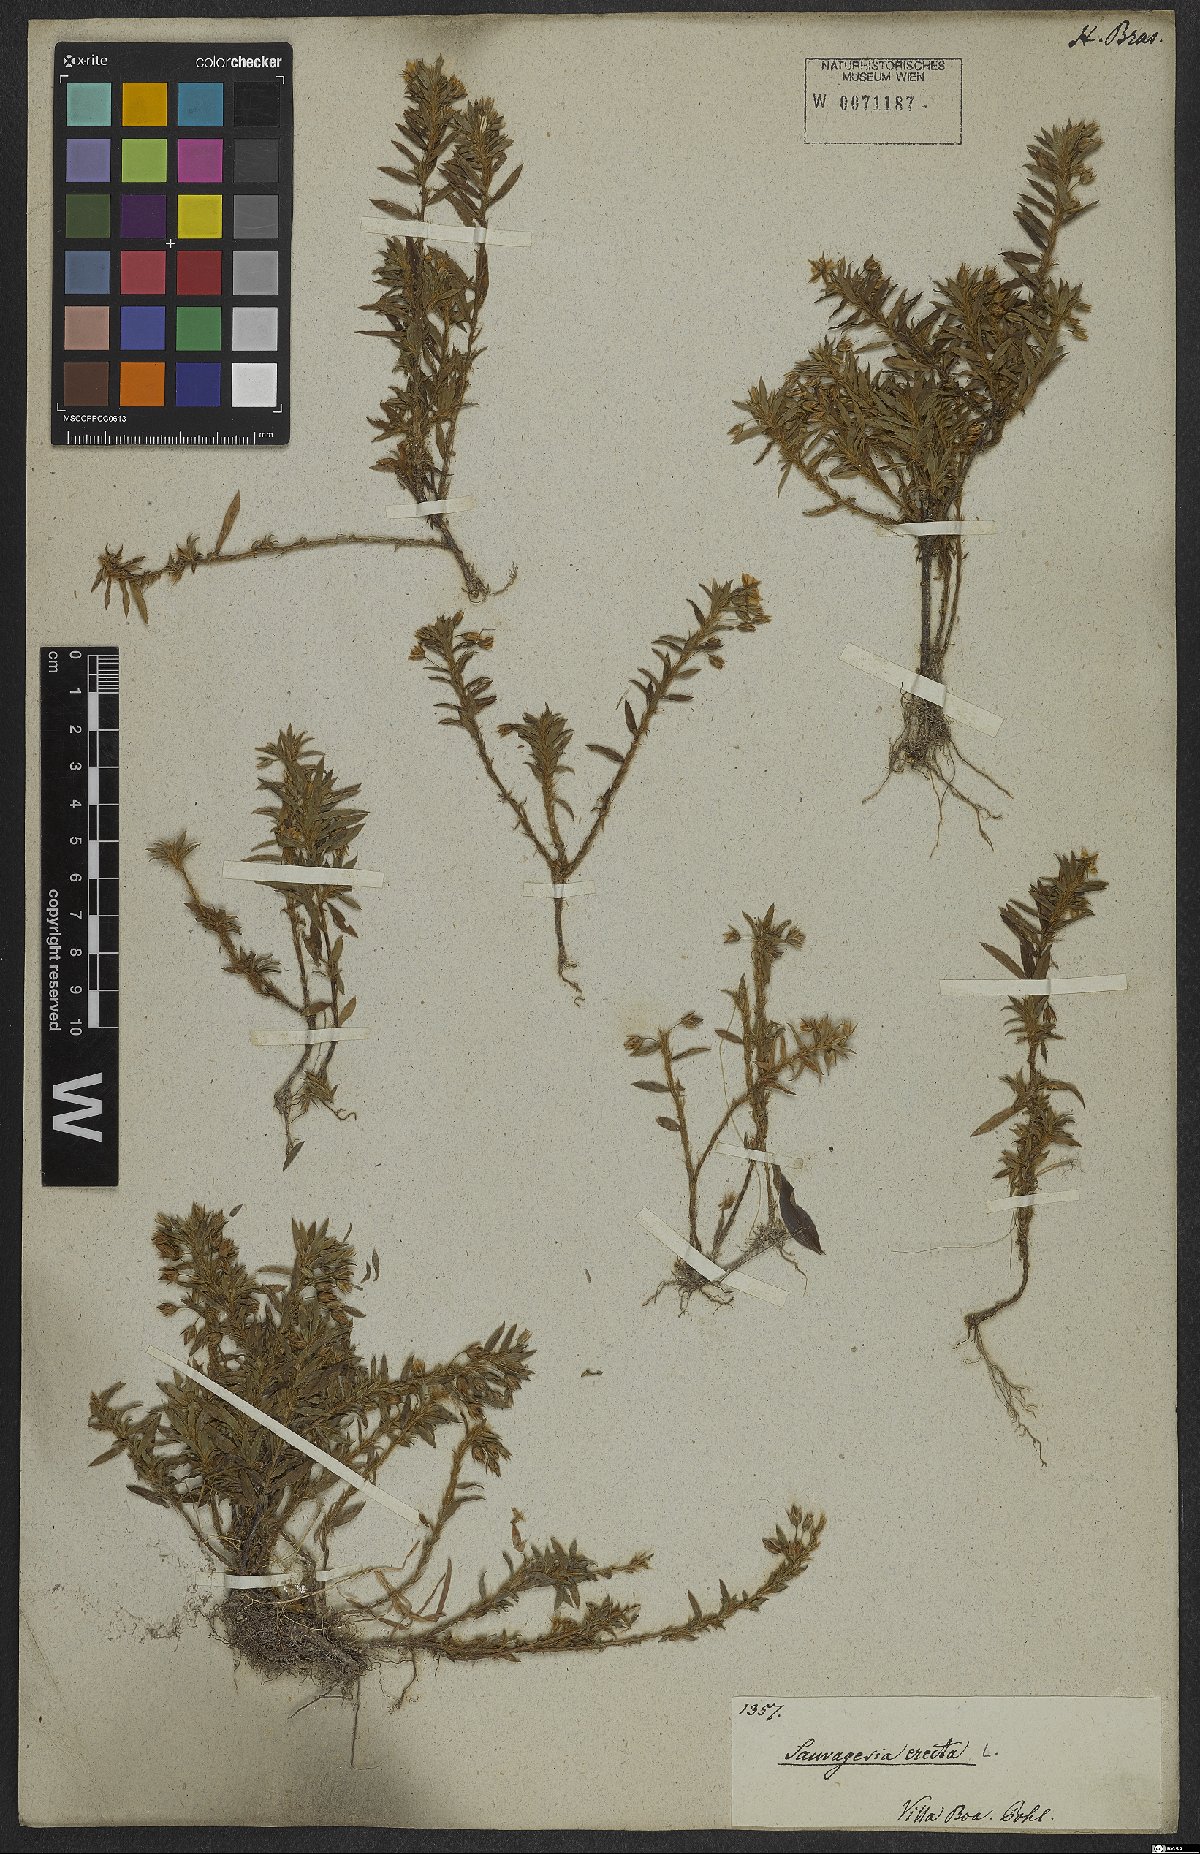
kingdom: Plantae
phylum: Tracheophyta
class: Magnoliopsida
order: Malpighiales
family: Ochnaceae
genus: Sauvagesia
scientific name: Sauvagesia erecta
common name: Creole tea
